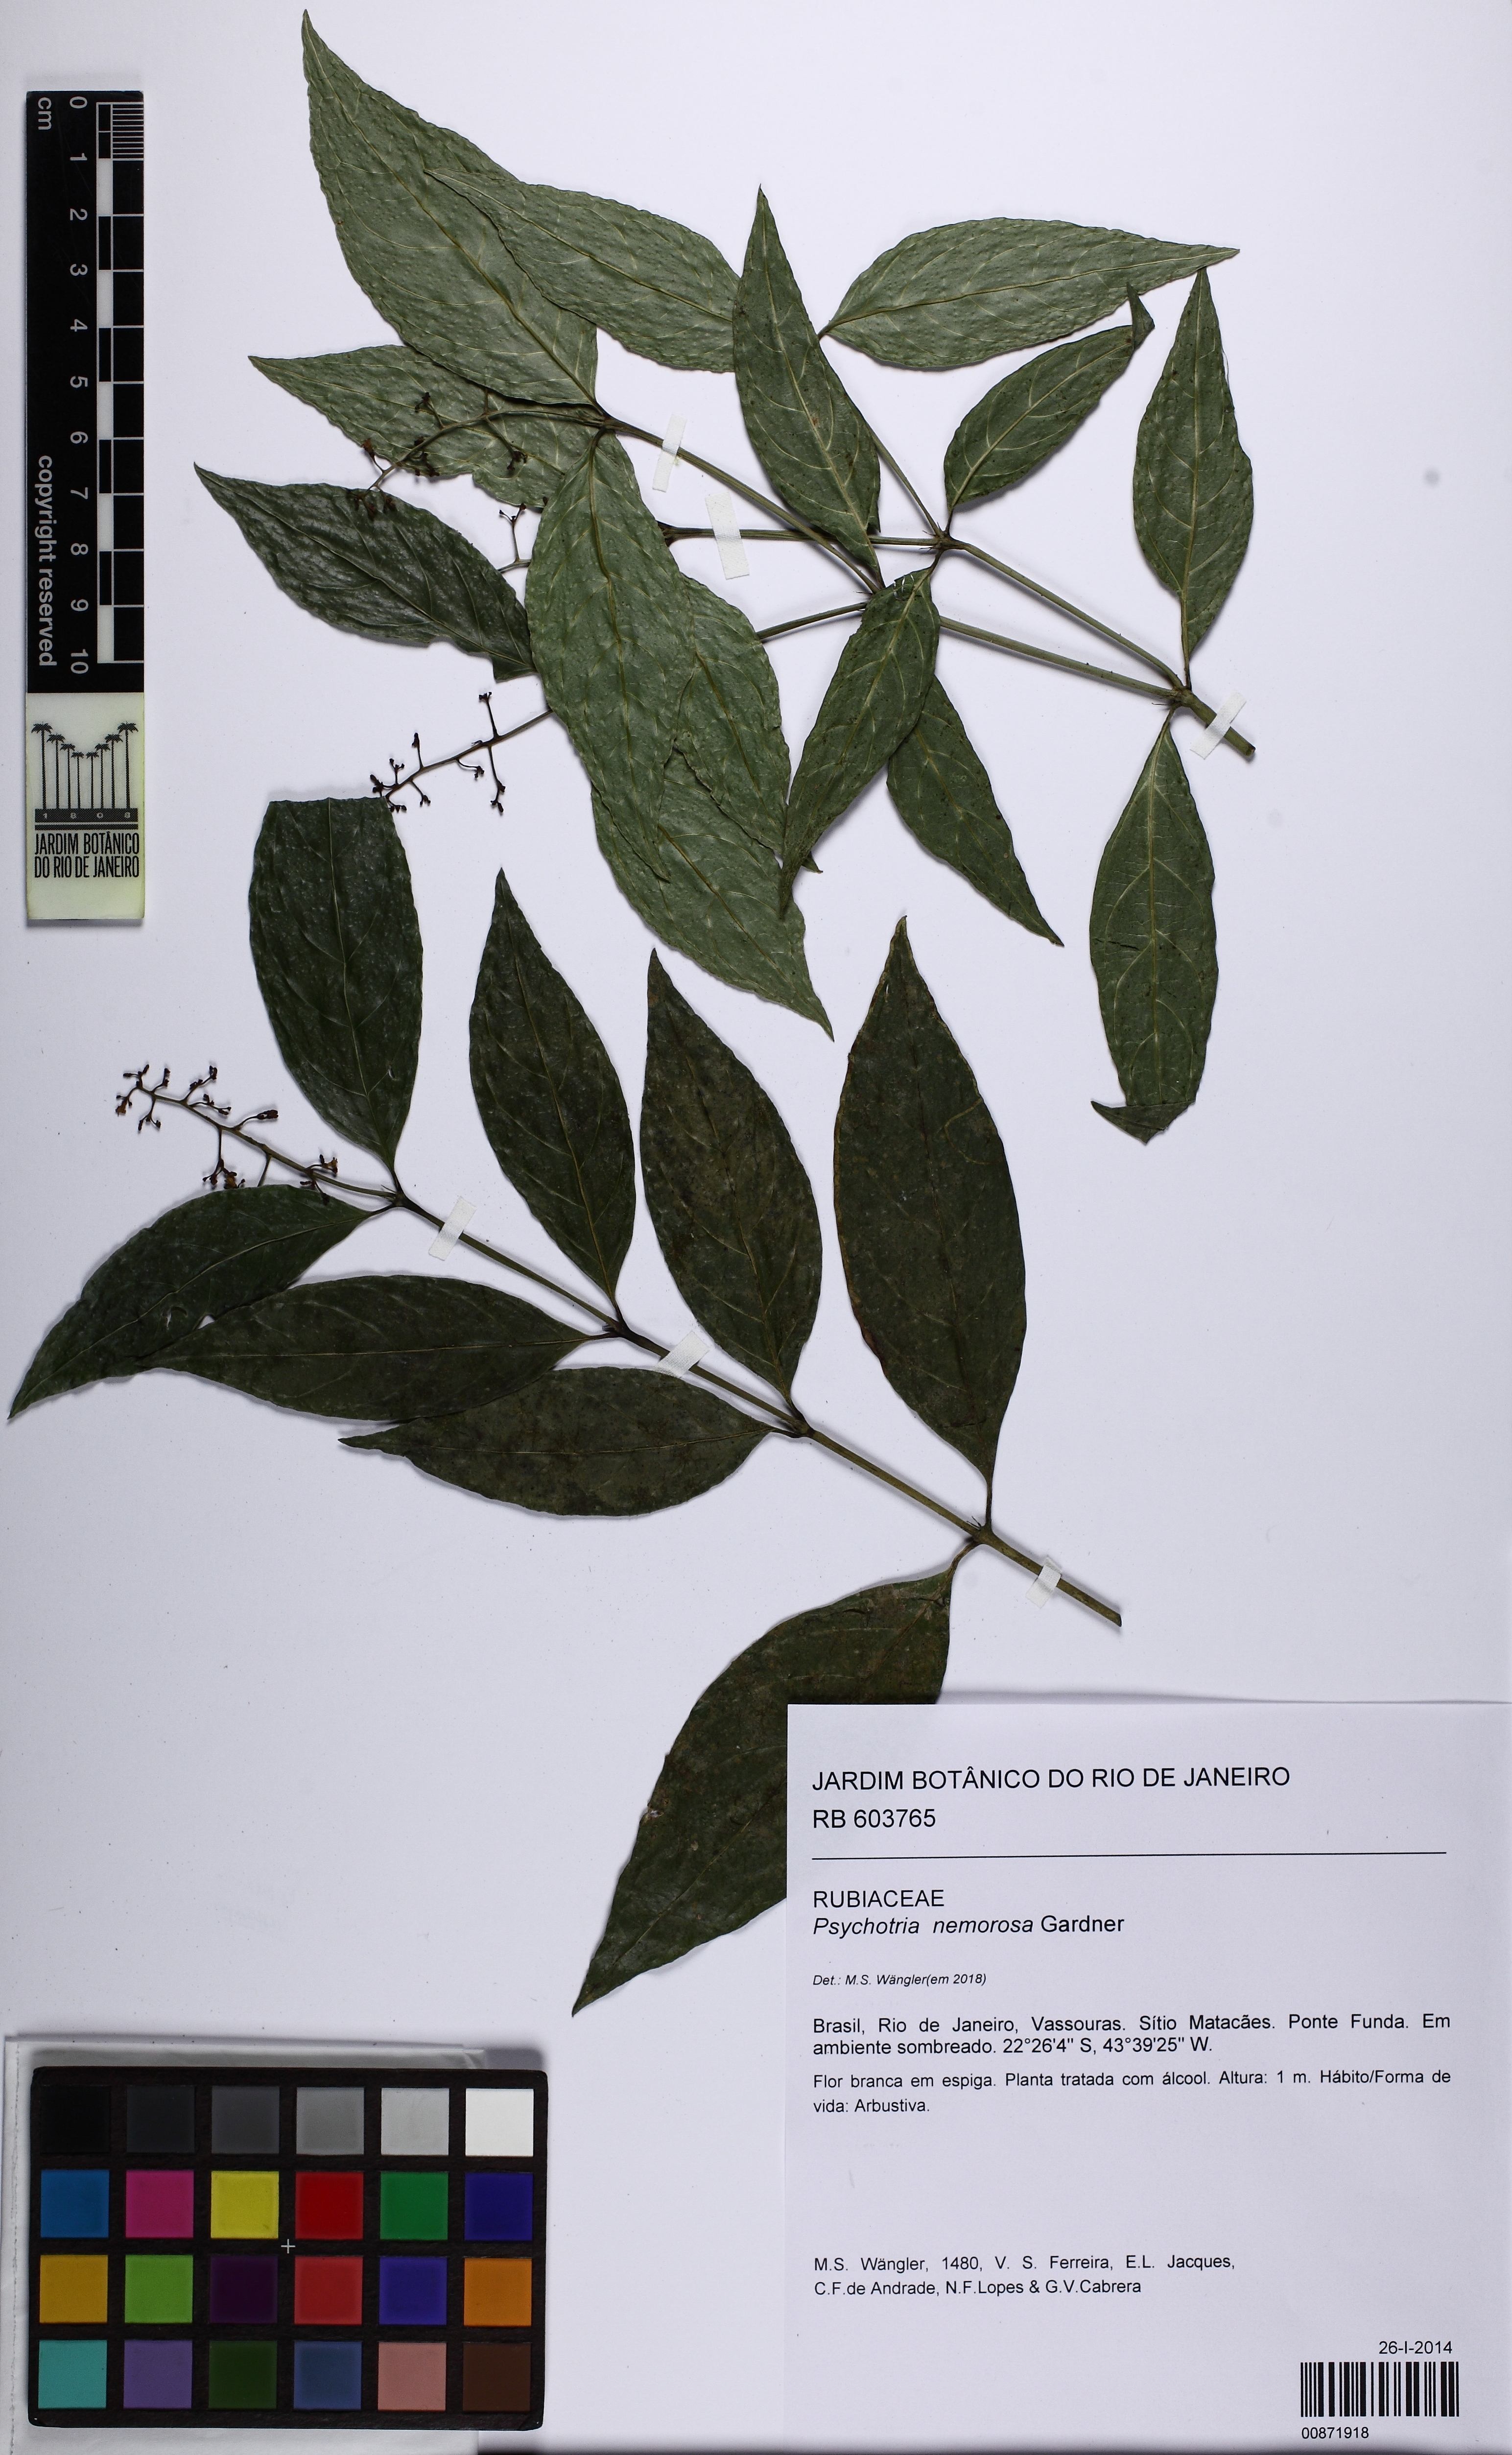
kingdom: Plantae
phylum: Tracheophyta
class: Magnoliopsida
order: Gentianales
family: Rubiaceae
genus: Palicourea
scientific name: Palicourea deflexa
